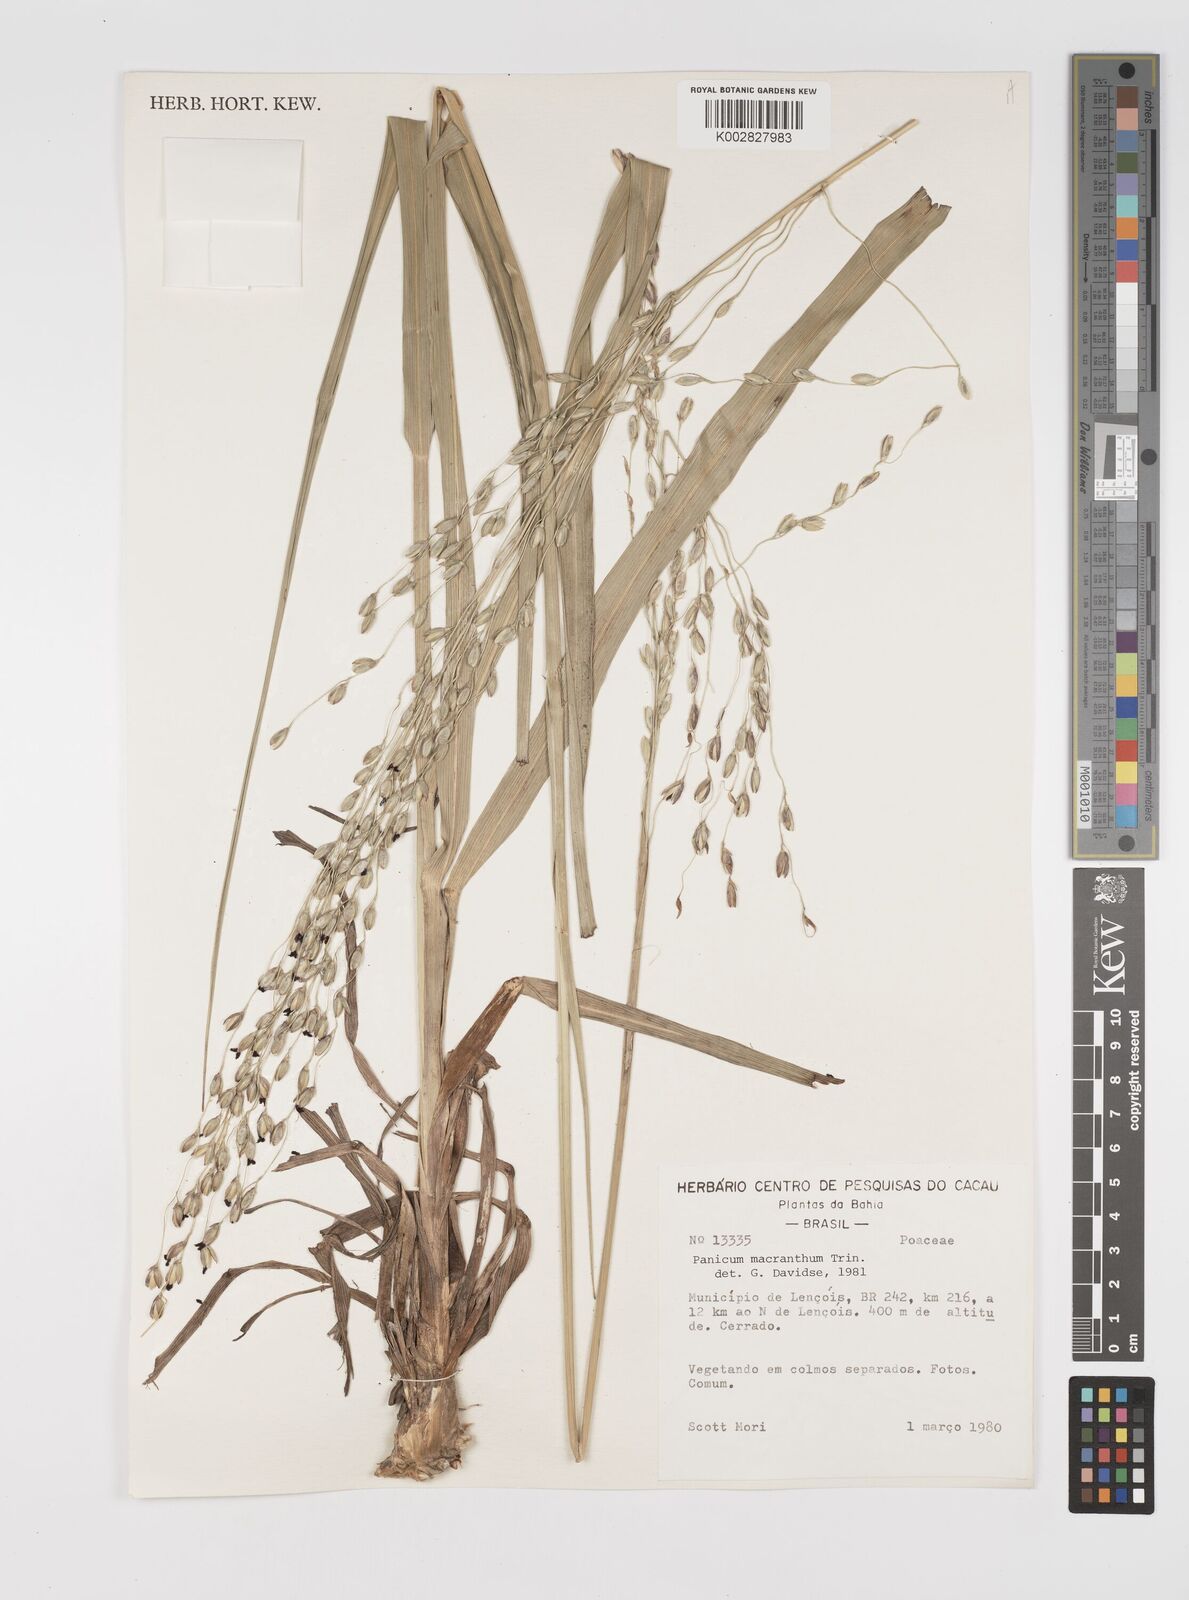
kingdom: Plantae
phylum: Tracheophyta
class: Liliopsida
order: Poales
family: Poaceae
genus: Oncorachis
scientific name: Oncorachis ramosa
